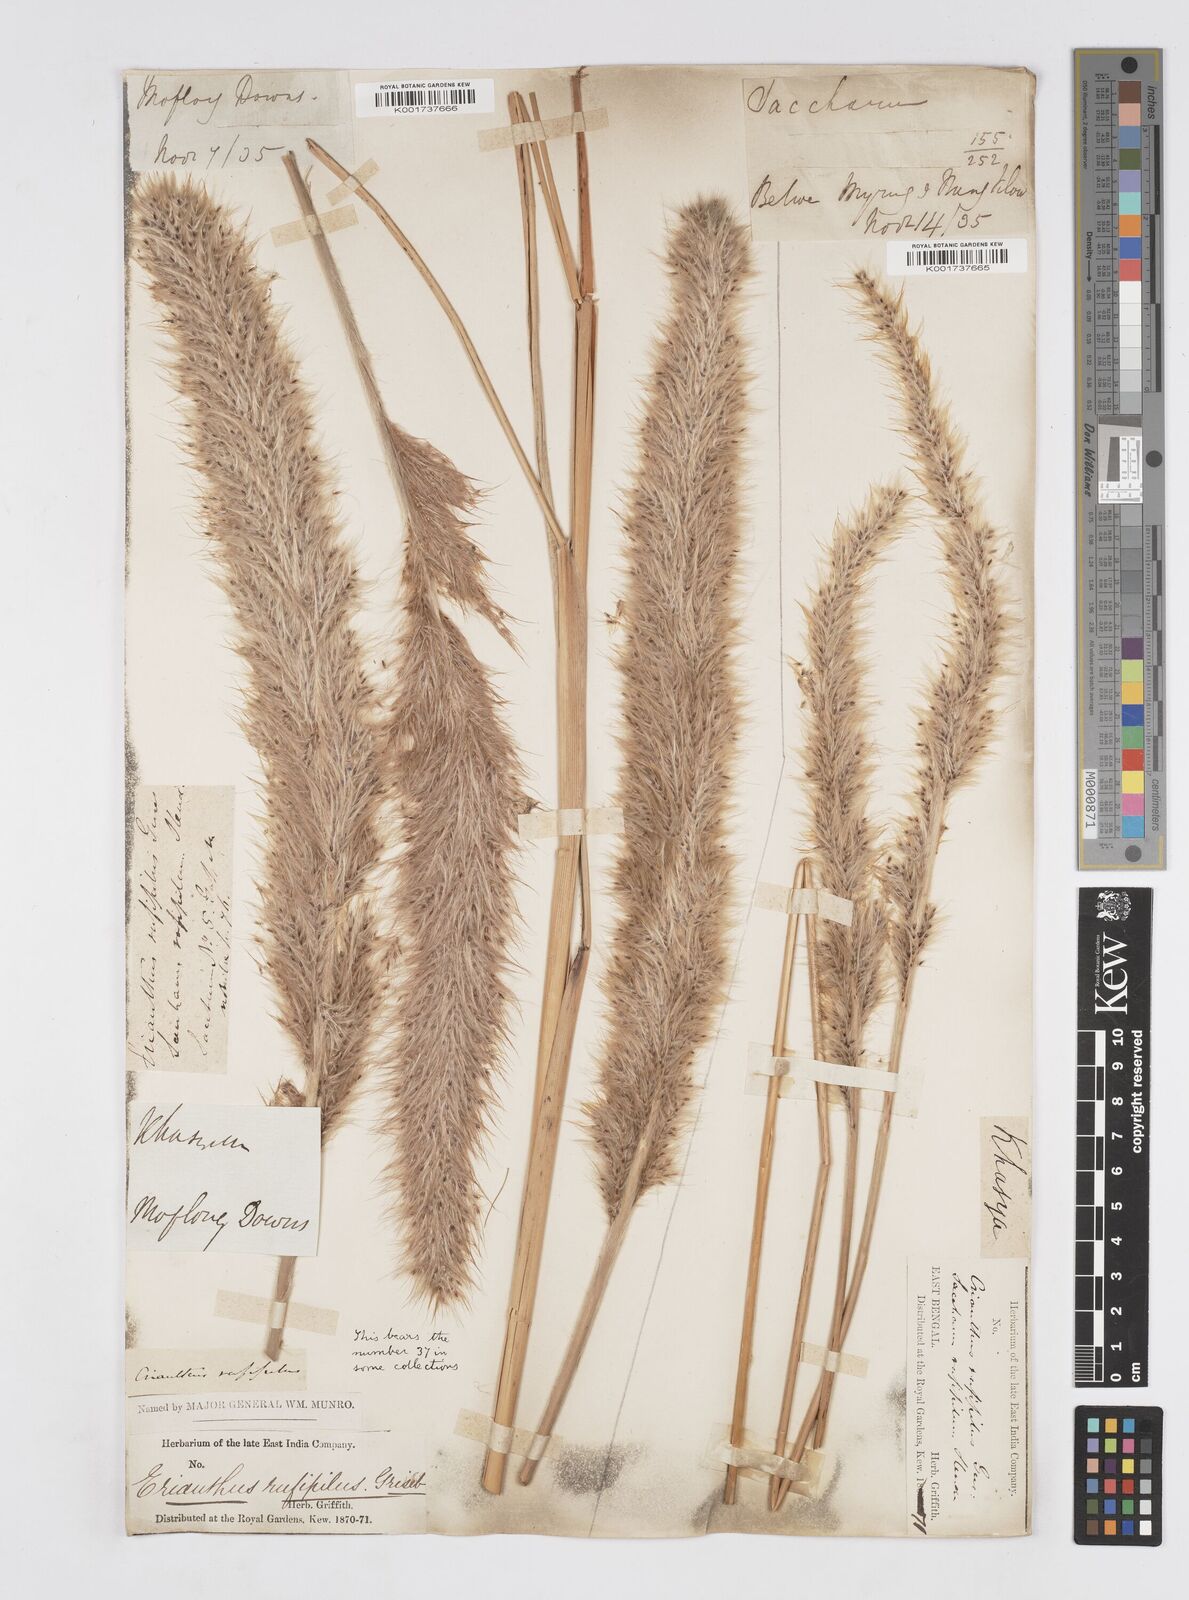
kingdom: Plantae
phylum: Tracheophyta
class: Liliopsida
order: Poales
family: Poaceae
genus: Tripidium
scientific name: Tripidium rufipilum
